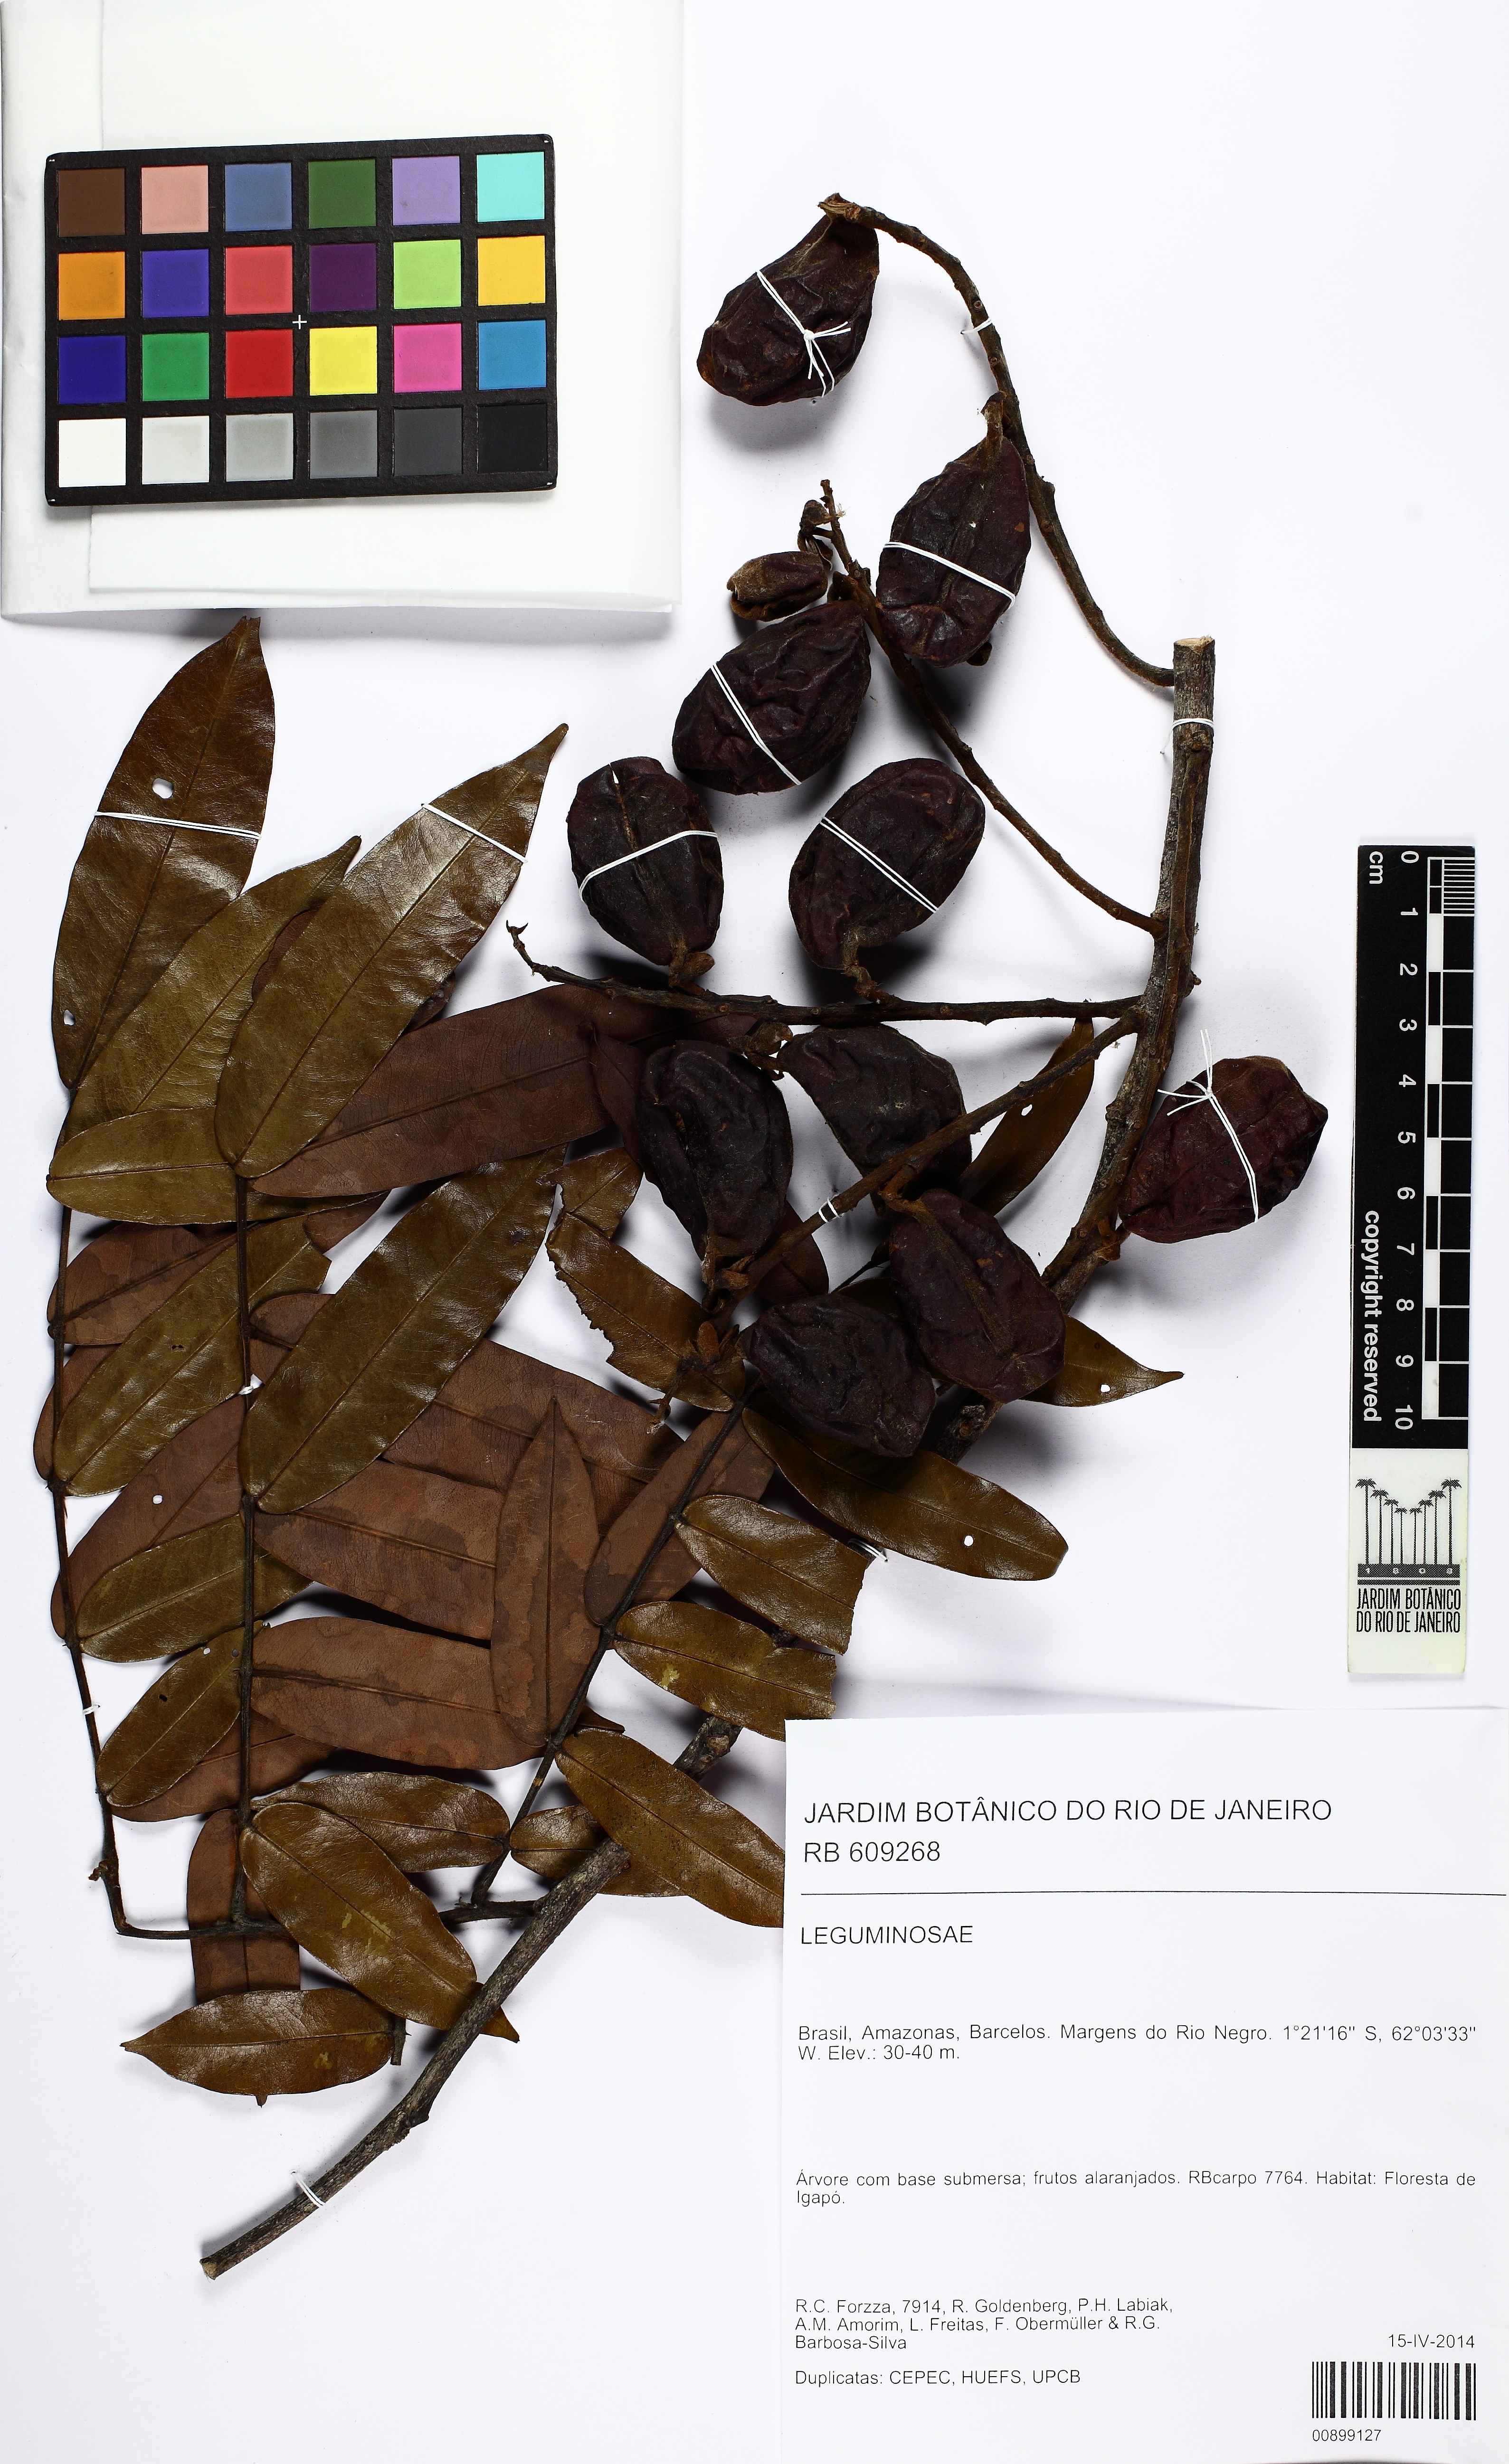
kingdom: Plantae
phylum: Tracheophyta
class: Magnoliopsida
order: Fabales
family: Fabaceae
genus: Swartzia
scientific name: Swartzia sericea
